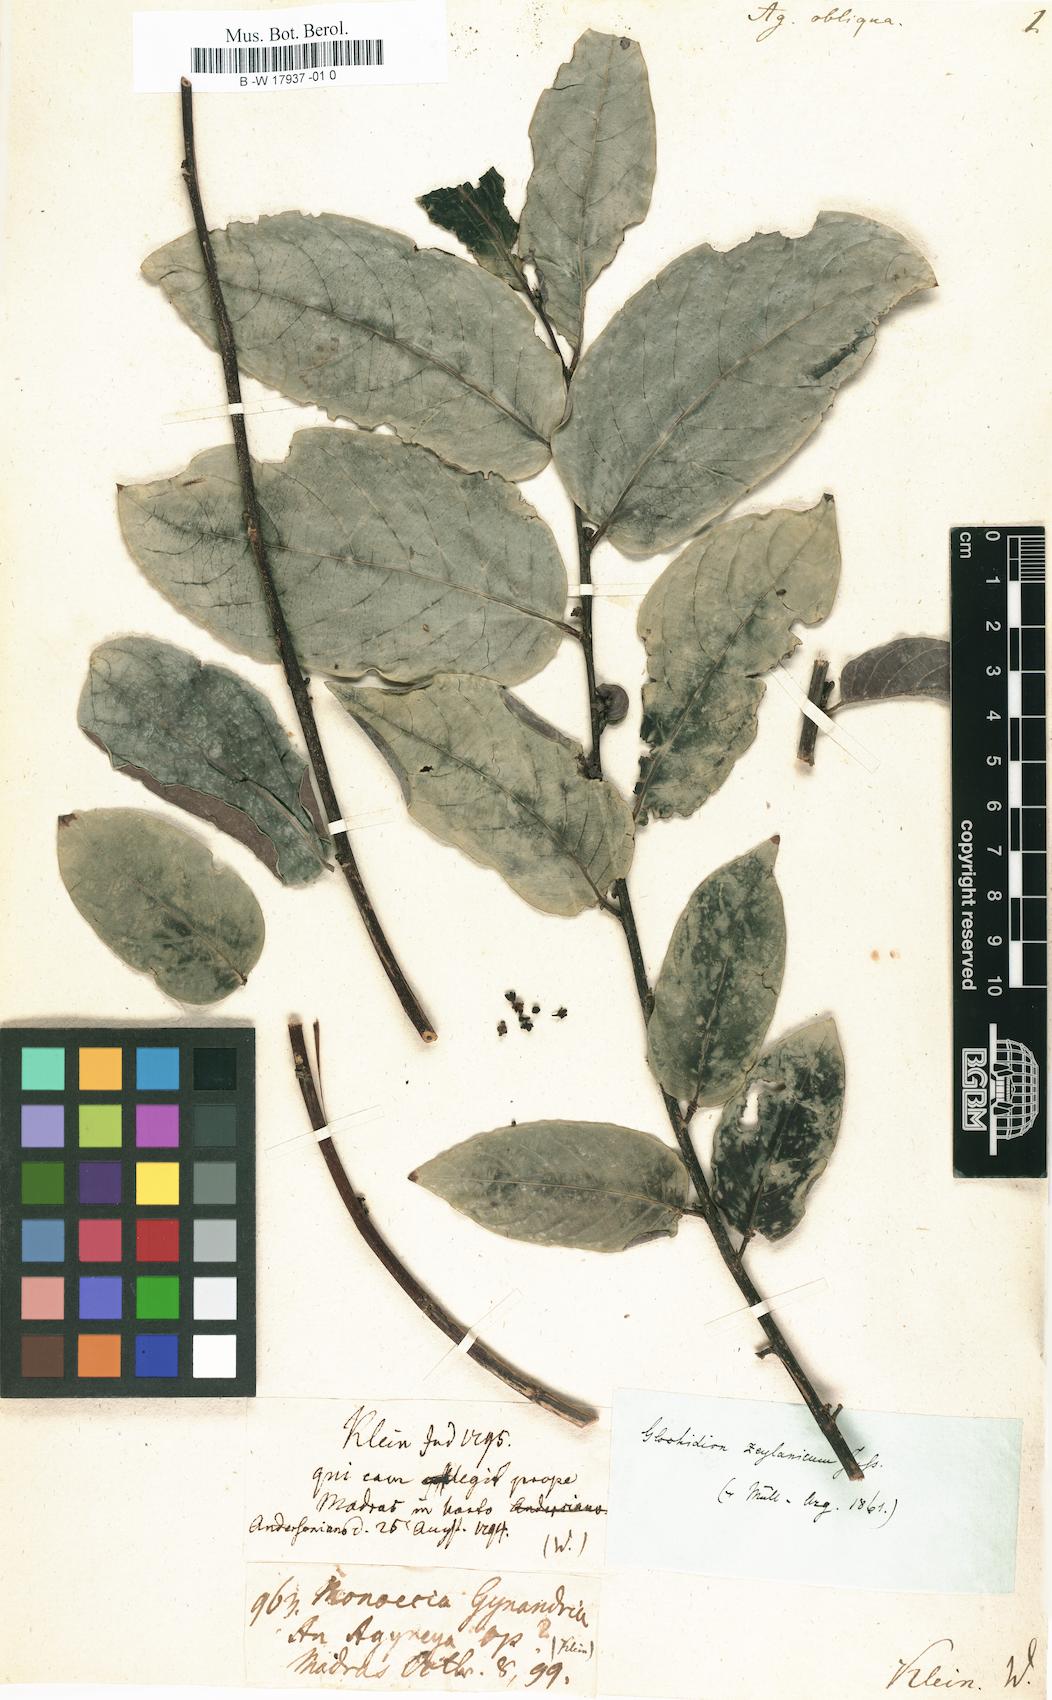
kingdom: Plantae
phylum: Tracheophyta
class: Magnoliopsida
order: Malpighiales
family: Phyllanthaceae
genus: Glochidion
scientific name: Glochidion zeylanicum
